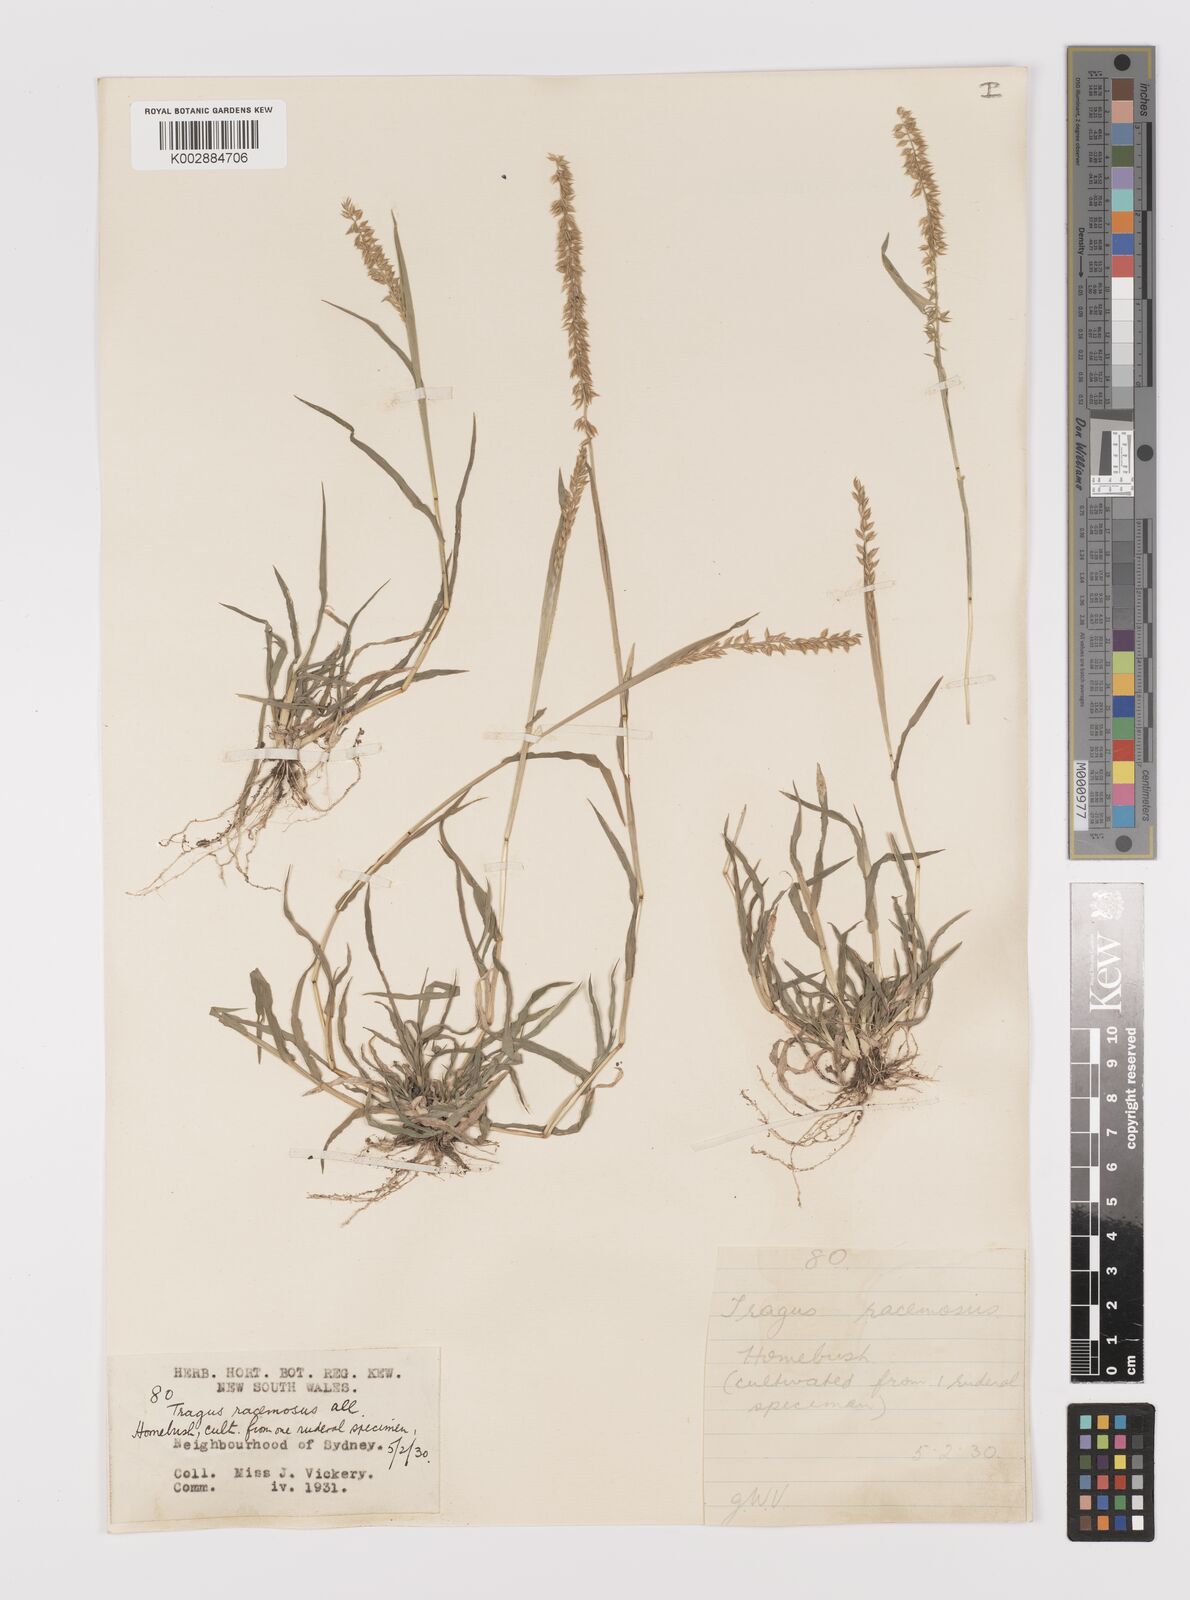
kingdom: Plantae
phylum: Tracheophyta
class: Liliopsida
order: Poales
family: Poaceae
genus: Tragus
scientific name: Tragus australianus
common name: Australian bur-grass
